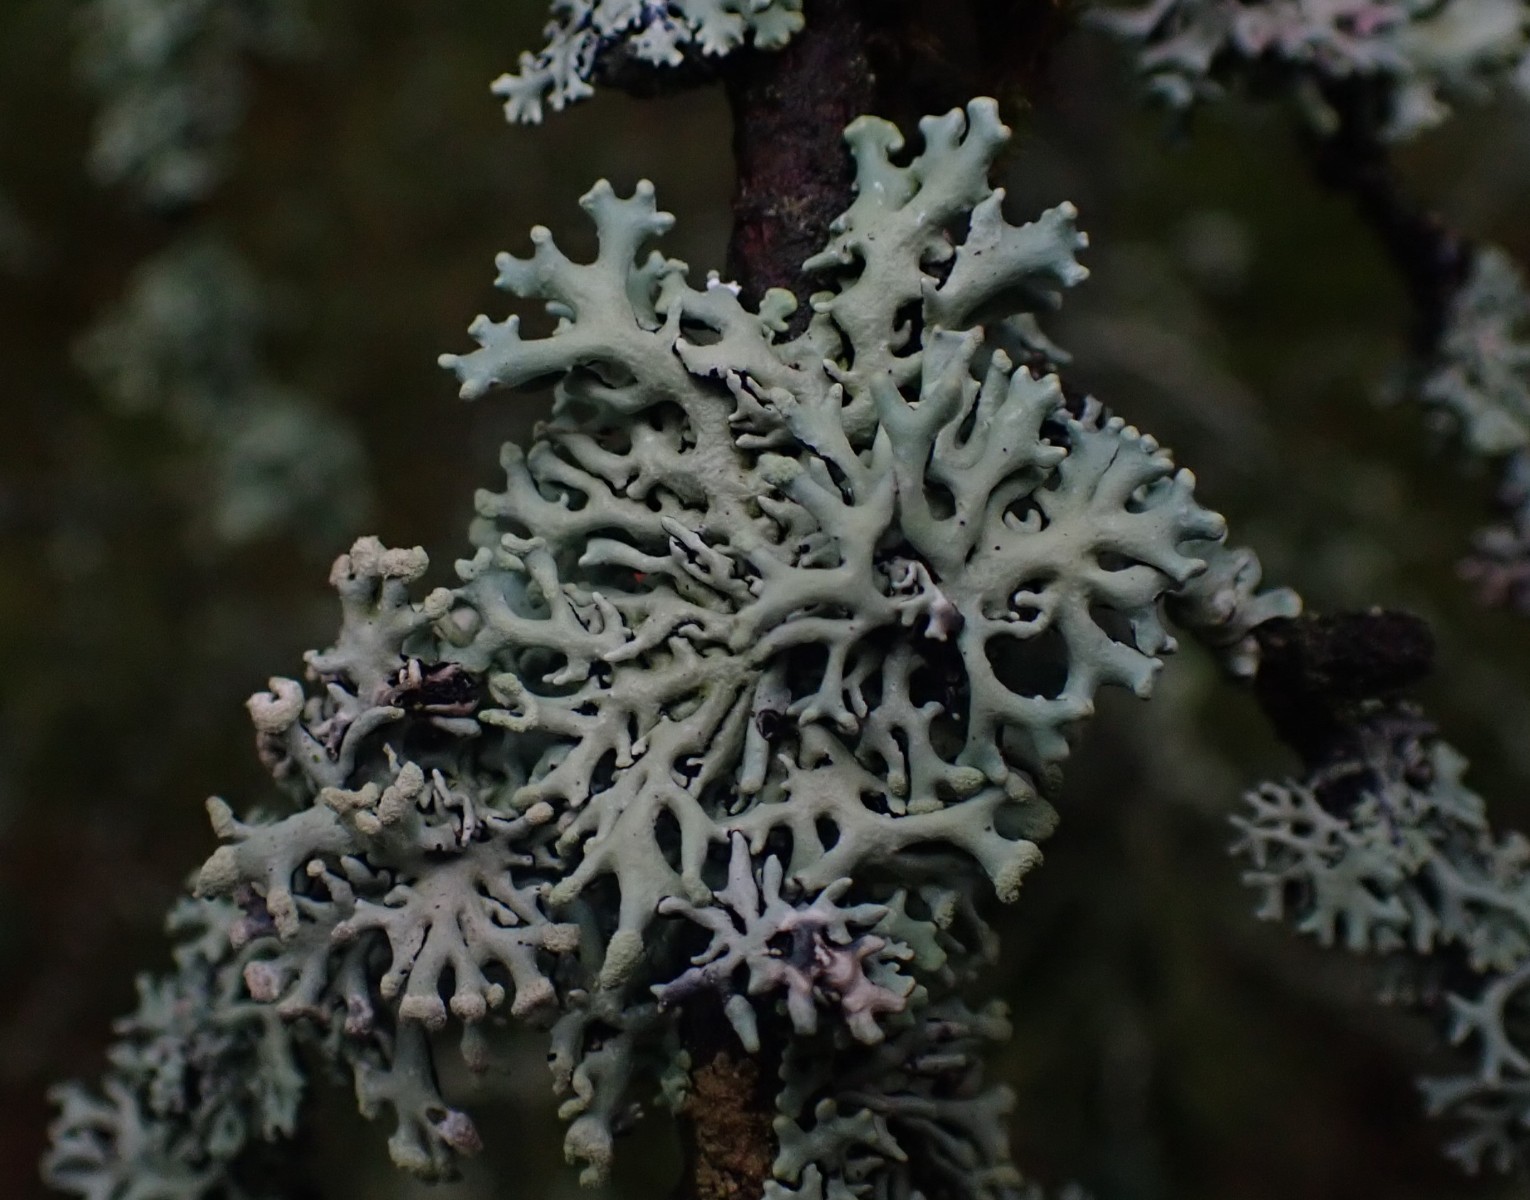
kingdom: Fungi
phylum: Ascomycota
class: Lecanoromycetes
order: Lecanorales
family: Parmeliaceae
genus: Hypogymnia
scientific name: Hypogymnia physodes
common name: almindelig kvistlav
